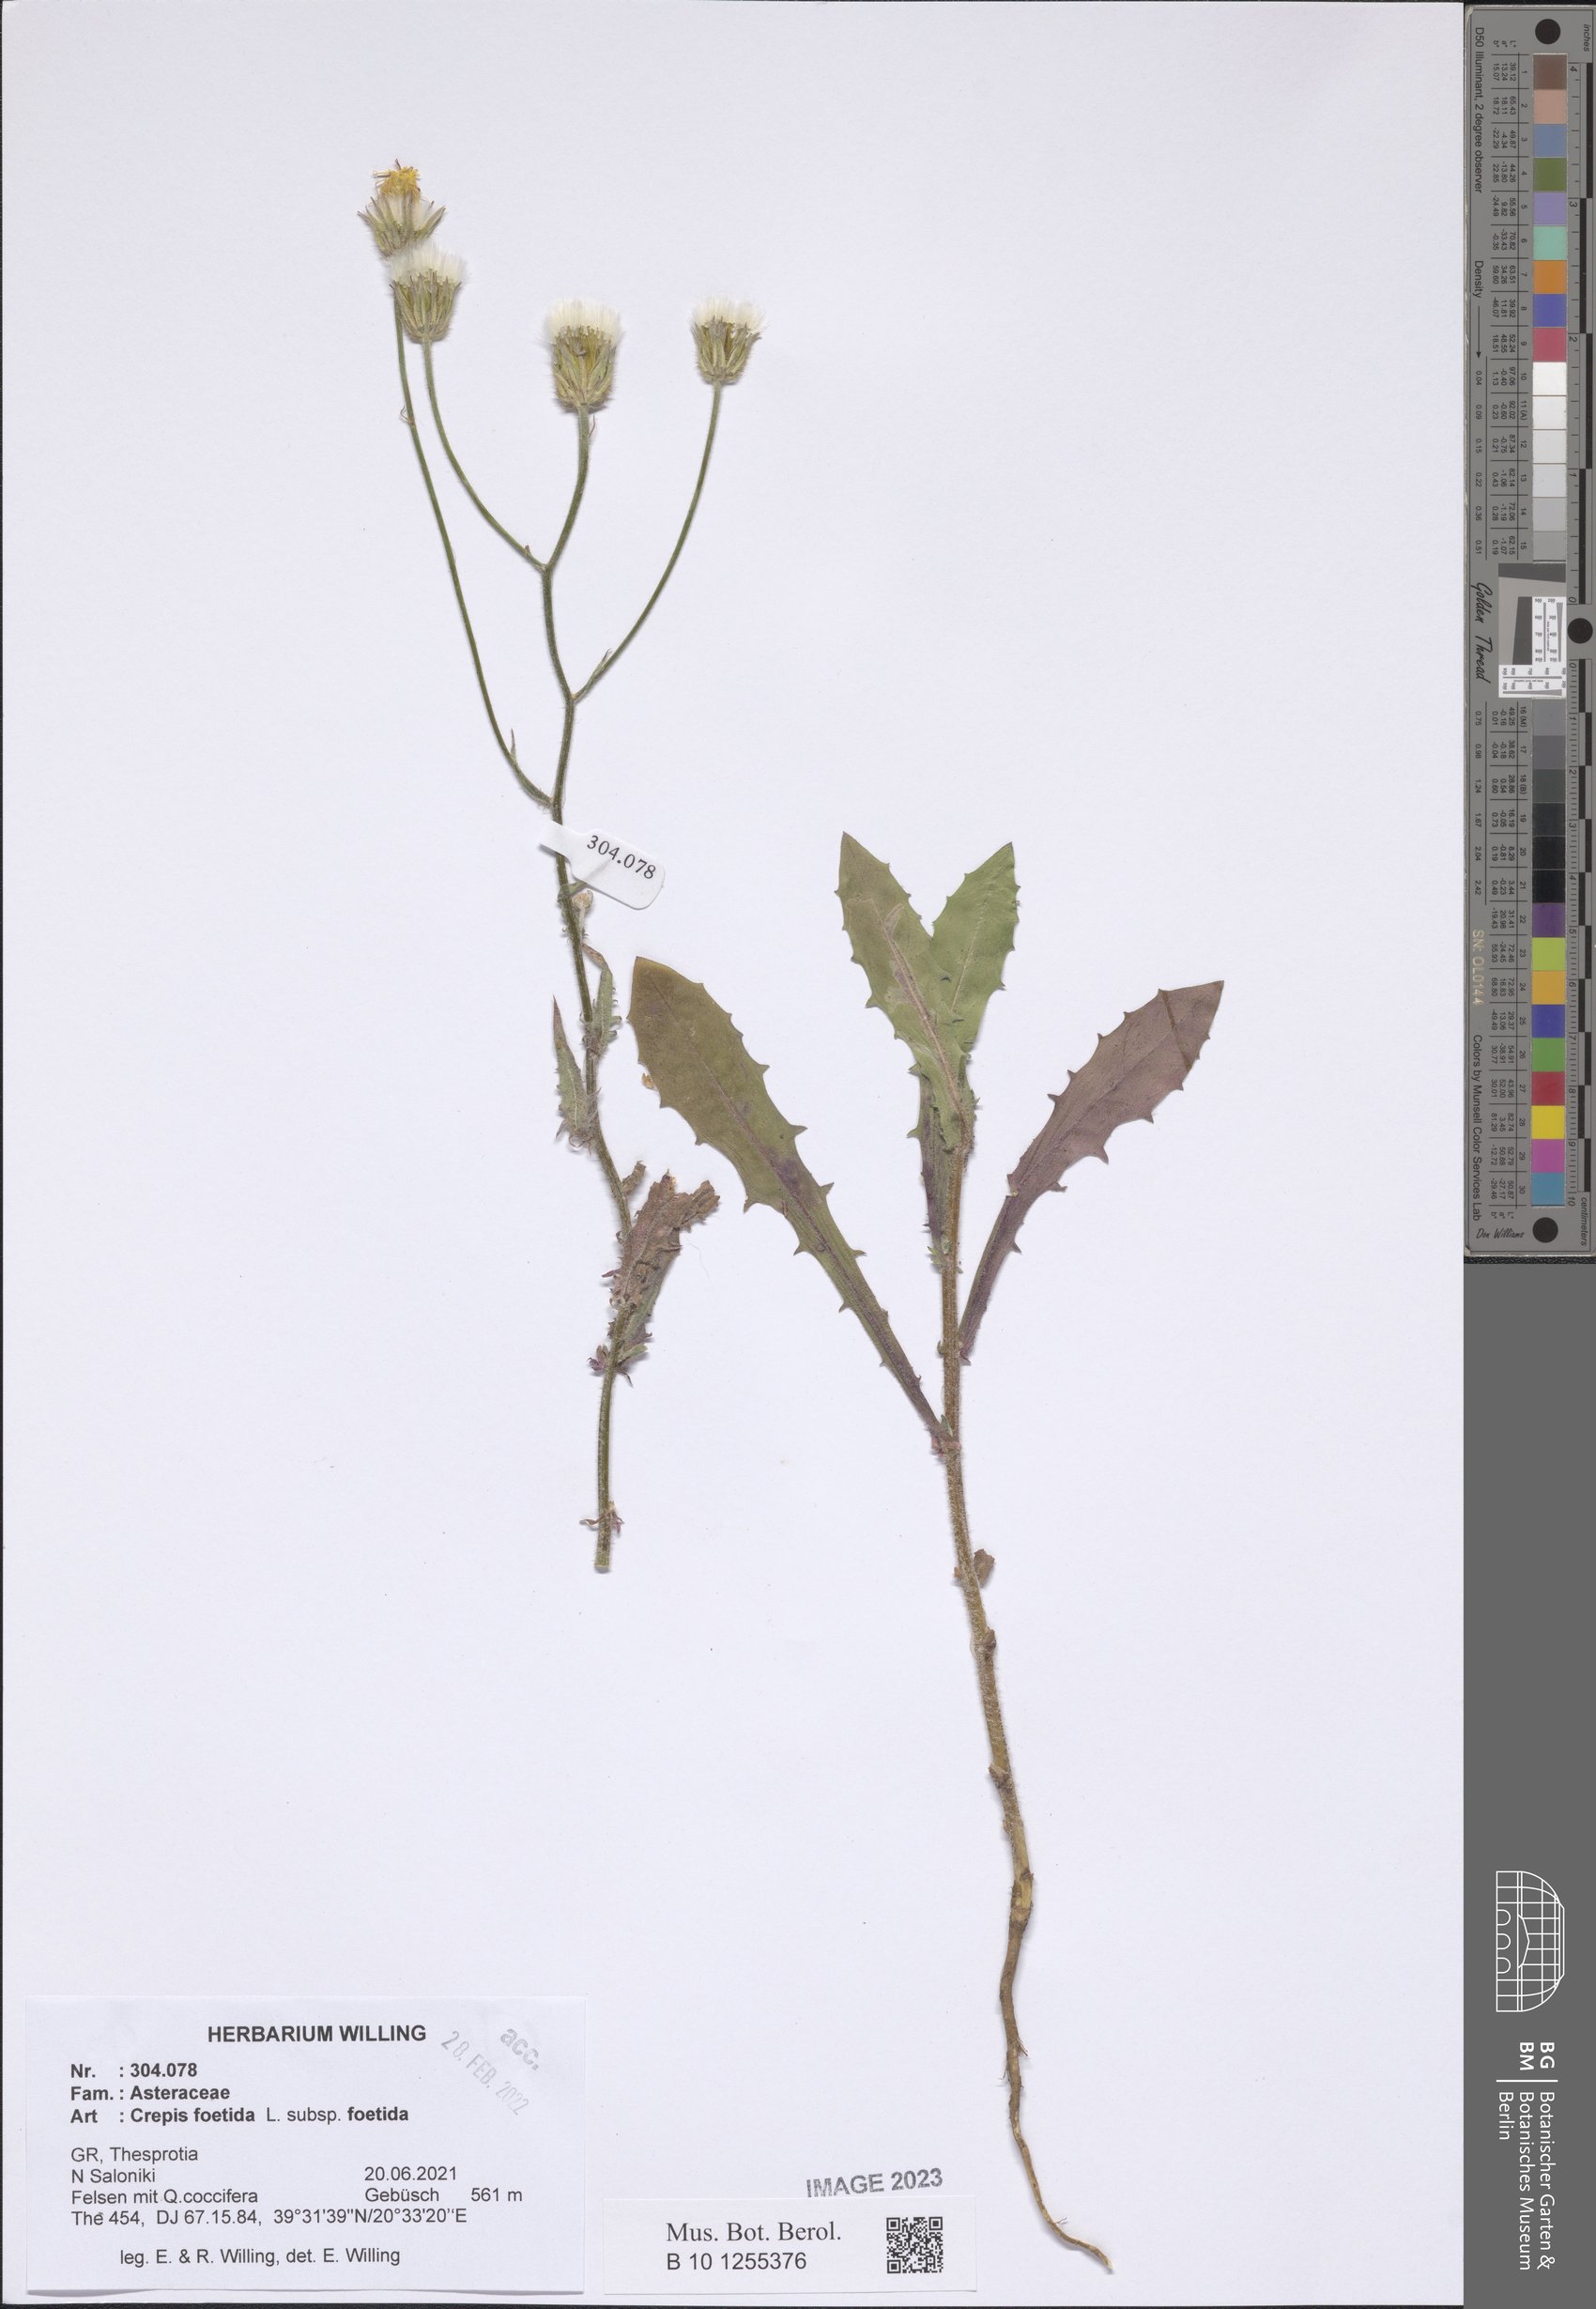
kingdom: Plantae
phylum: Tracheophyta
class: Magnoliopsida
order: Asterales
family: Asteraceae
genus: Crepis
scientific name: Crepis foetida
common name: Stinking hawk's-beard
